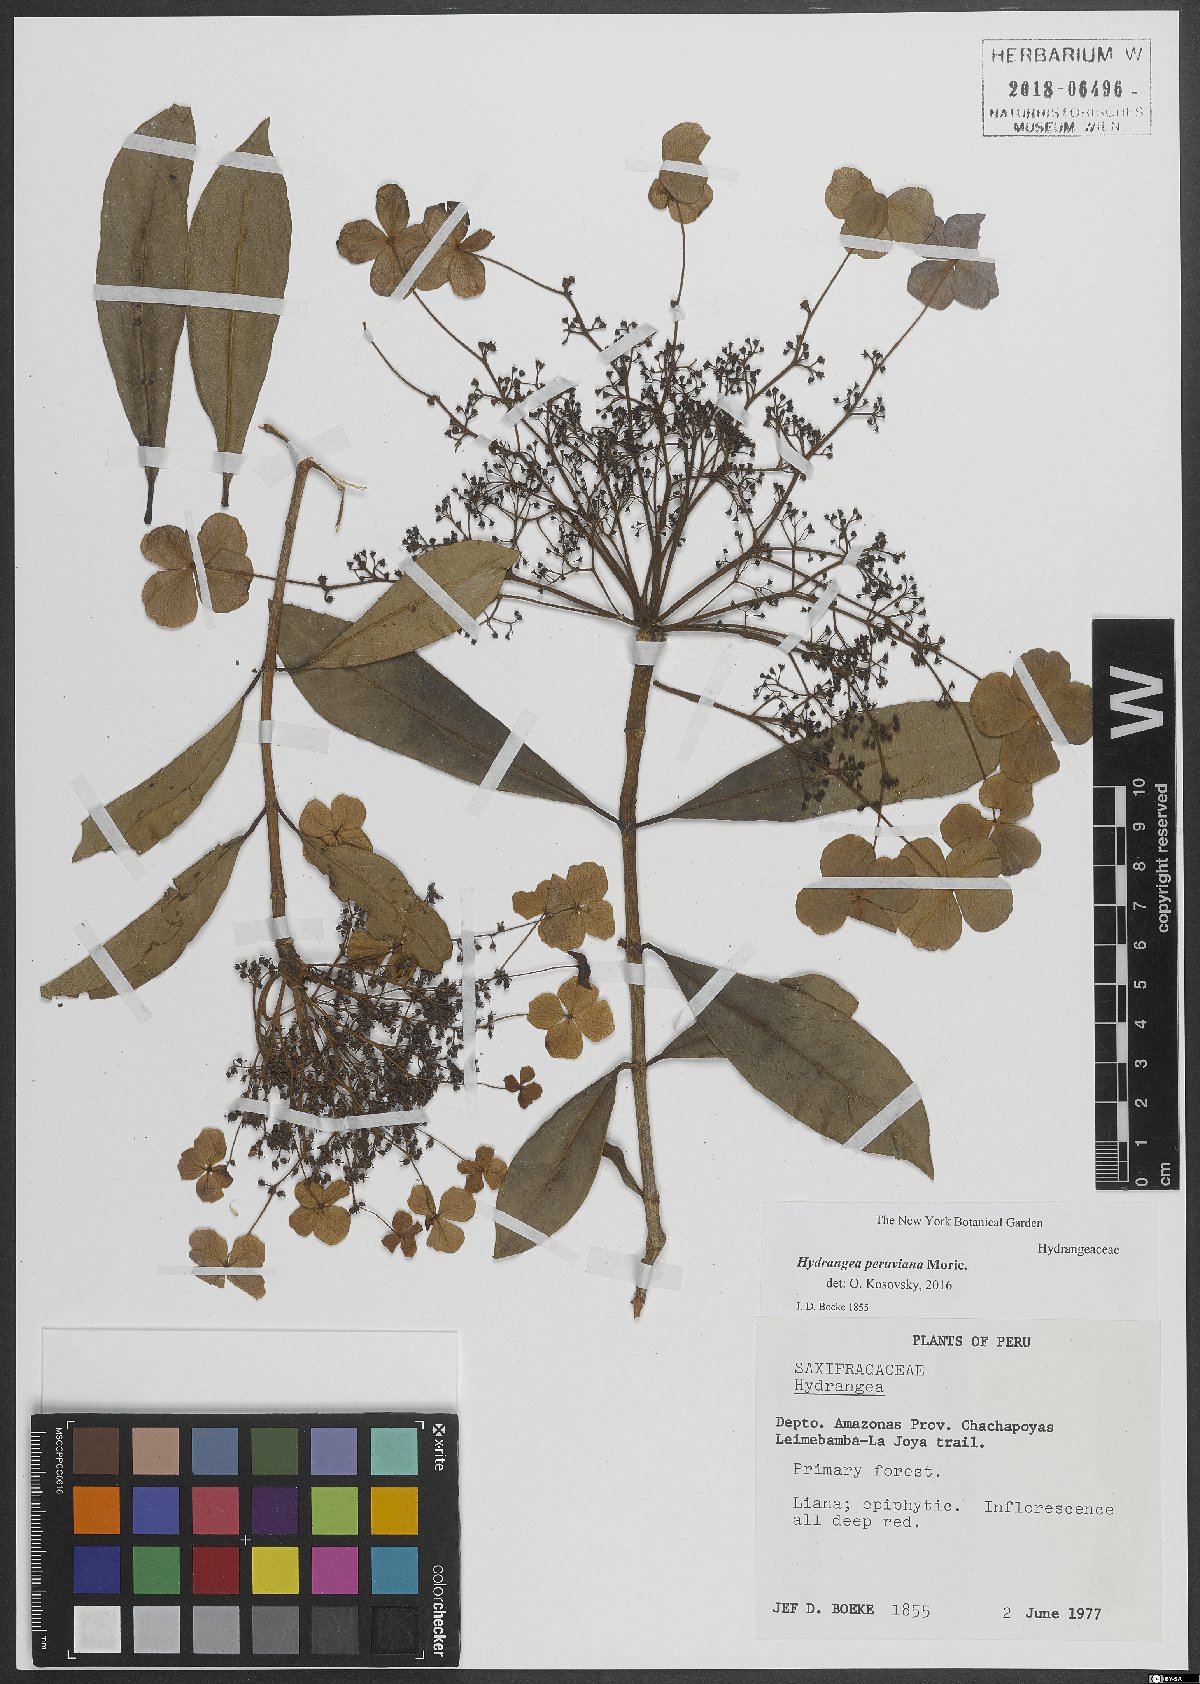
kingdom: Plantae
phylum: Tracheophyta
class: Magnoliopsida
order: Cornales
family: Hydrangeaceae
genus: Hydrangea
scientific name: Hydrangea peruviana
